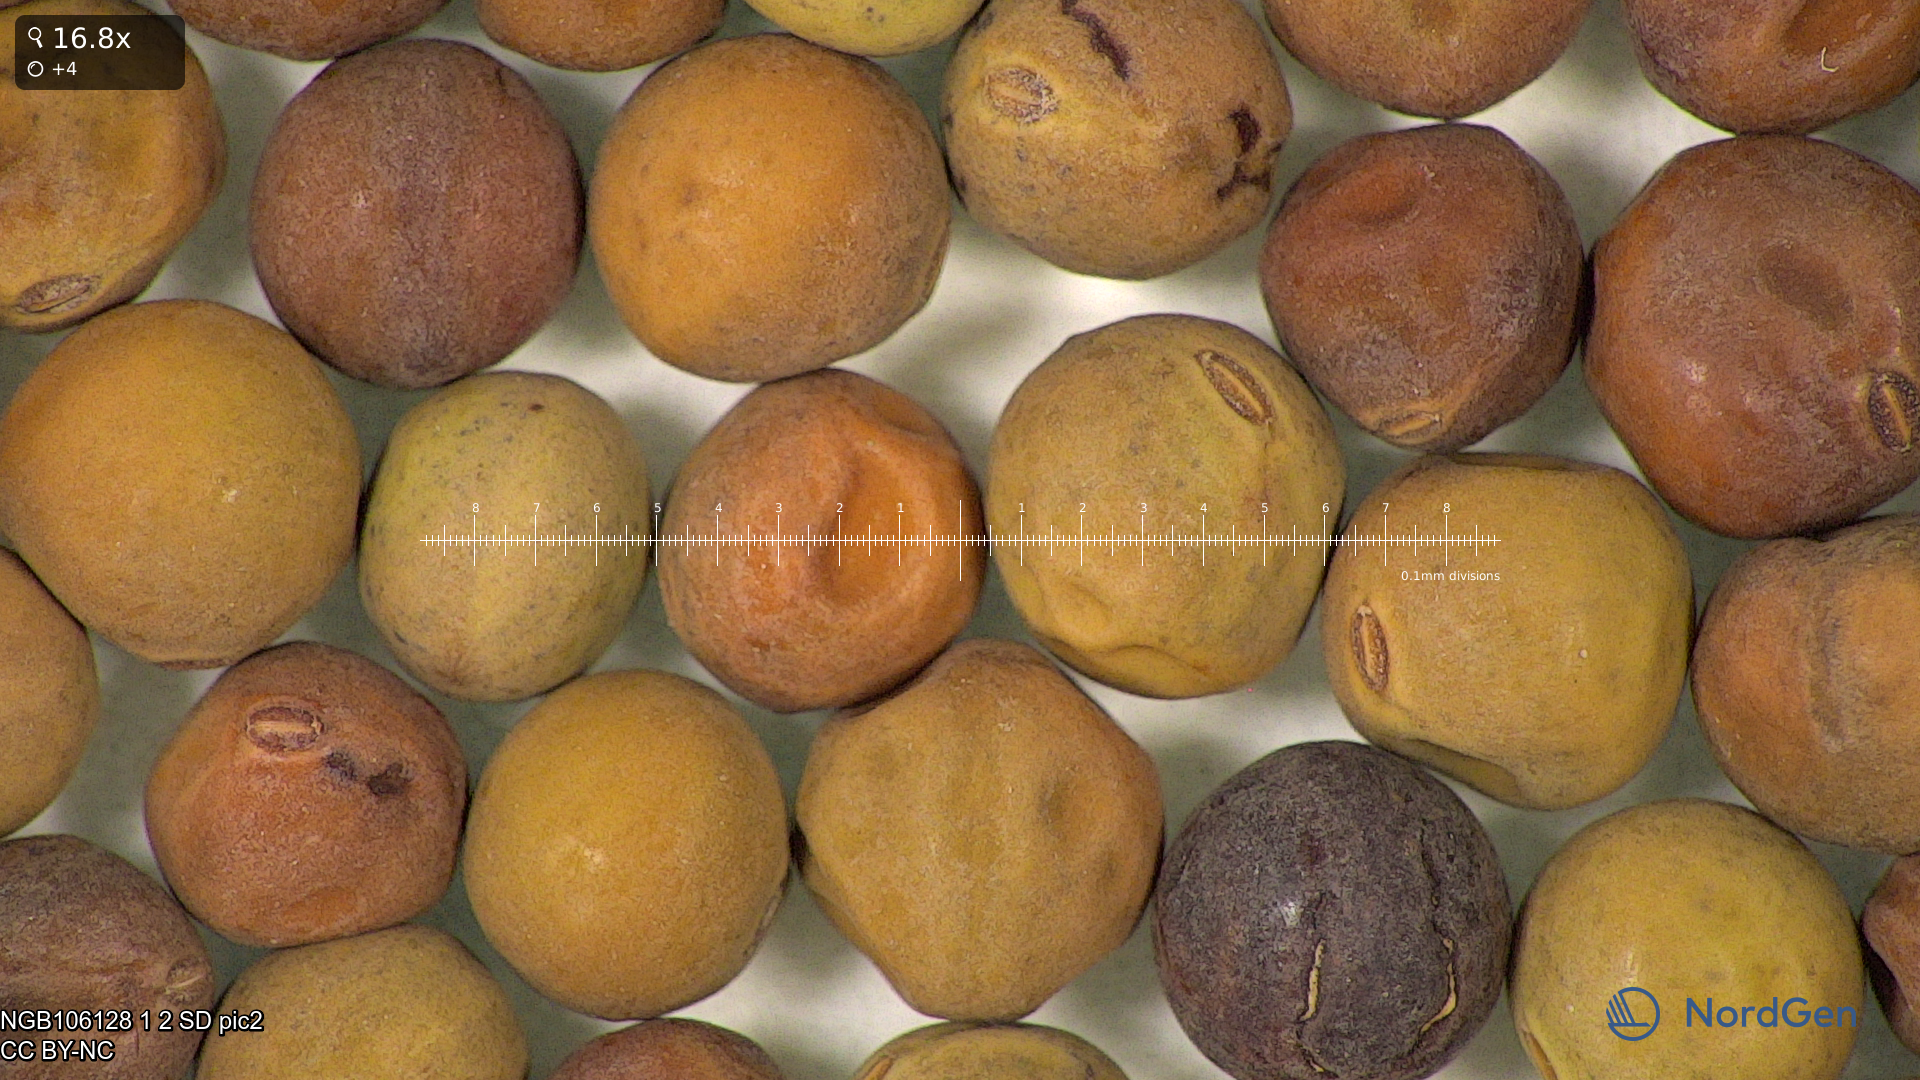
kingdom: Plantae
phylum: Tracheophyta
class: Magnoliopsida
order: Fabales
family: Fabaceae
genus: Lathyrus
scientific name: Lathyrus oleraceus
